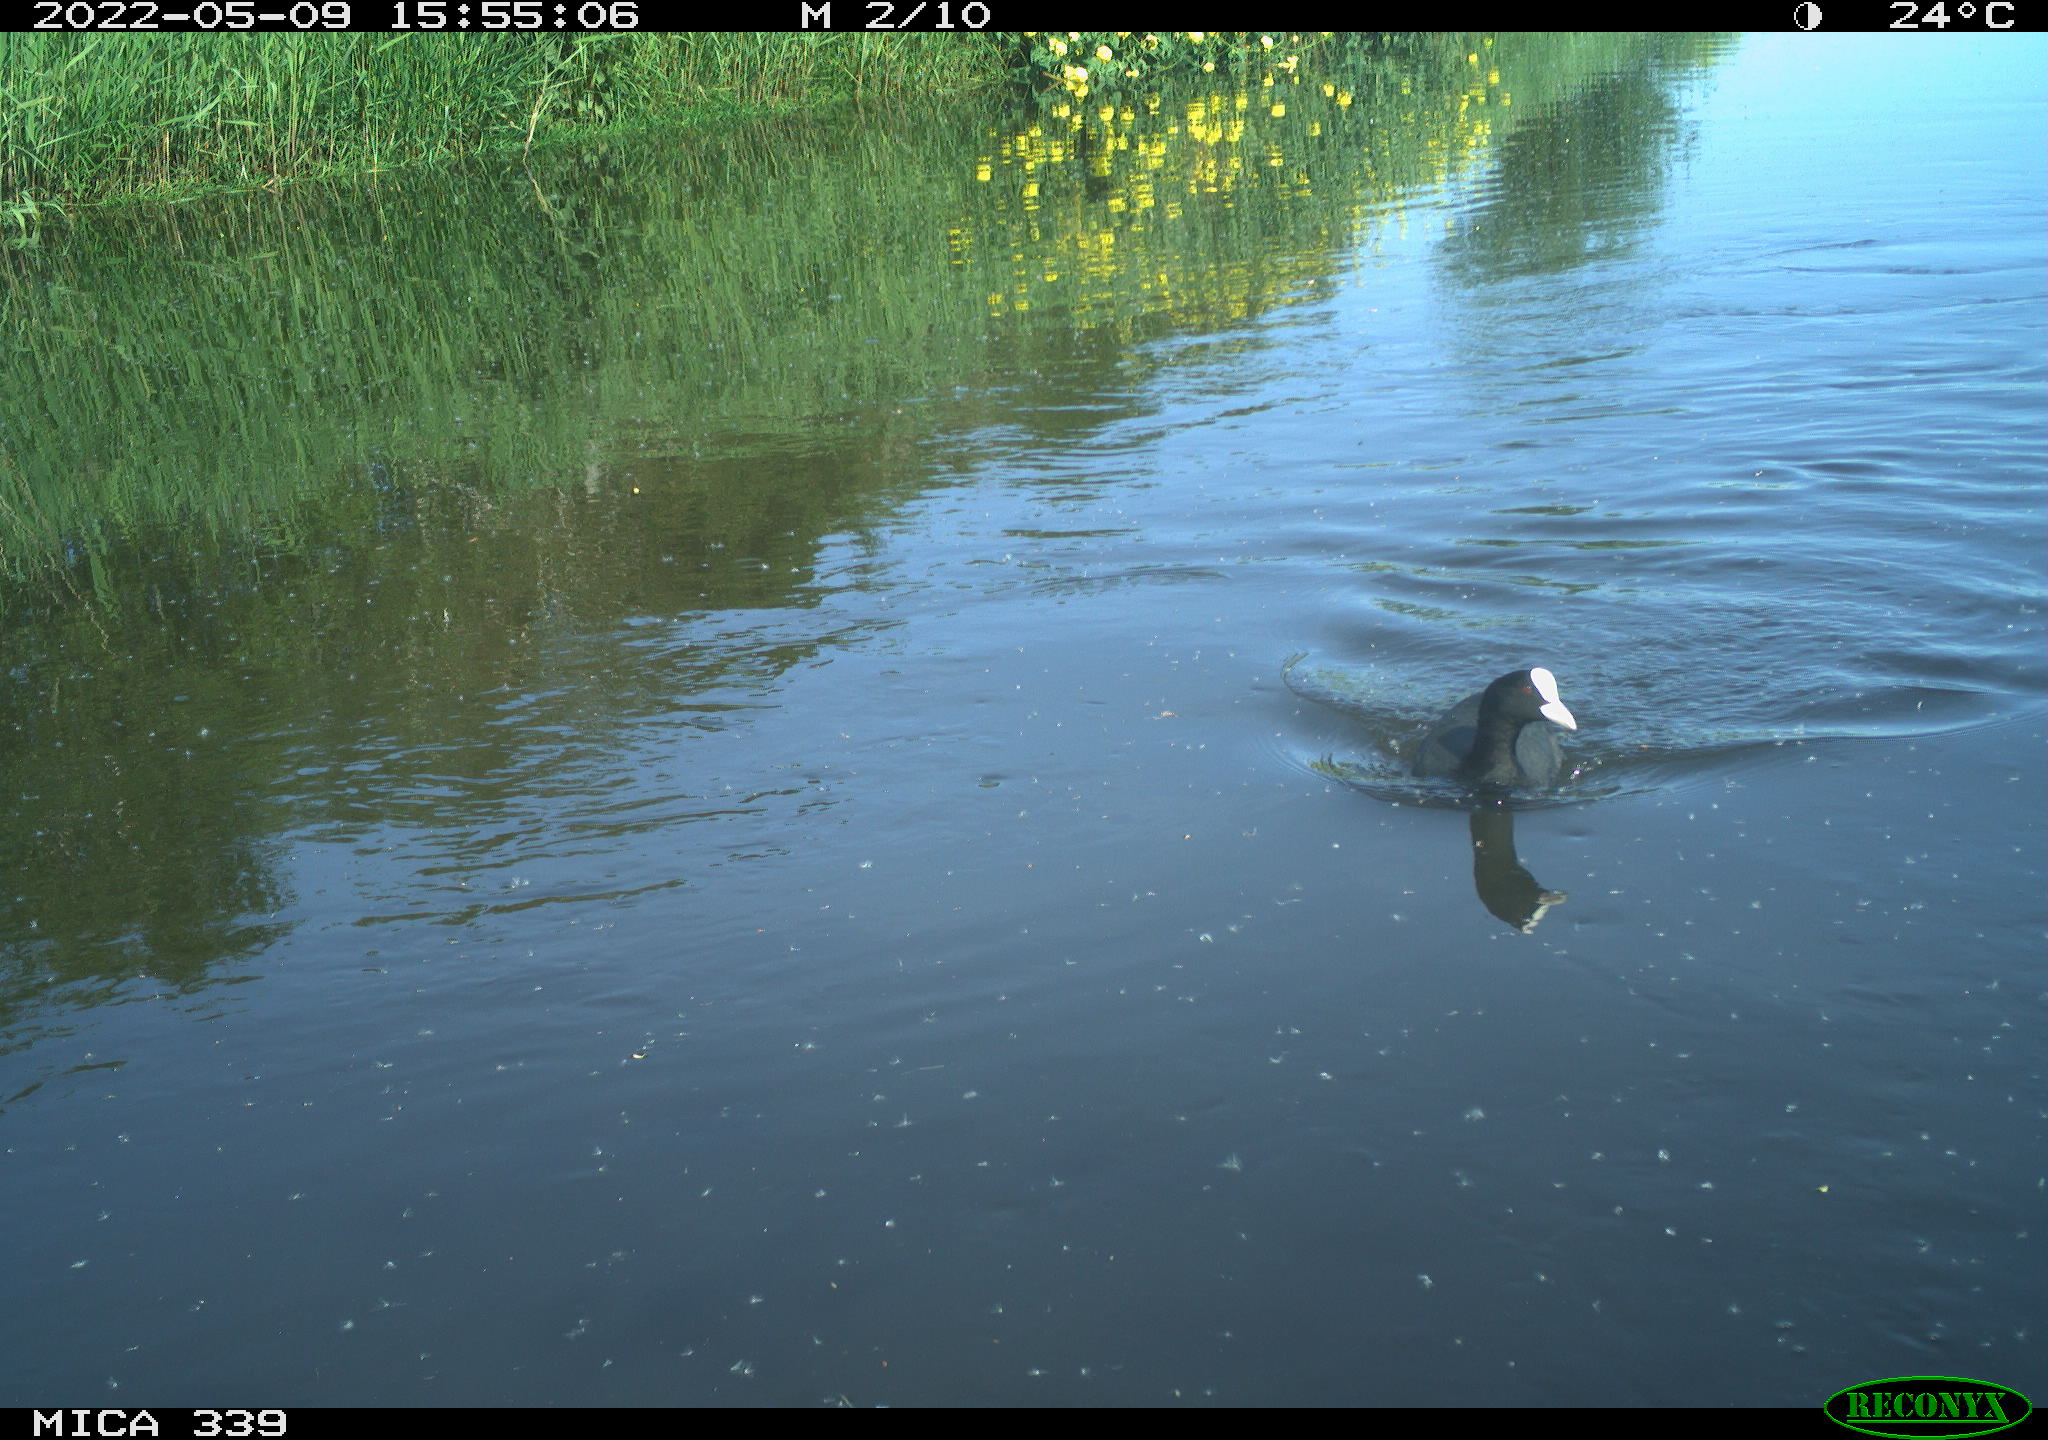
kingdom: Animalia
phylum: Chordata
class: Aves
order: Gruiformes
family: Rallidae
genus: Fulica
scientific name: Fulica atra
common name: Eurasian coot
